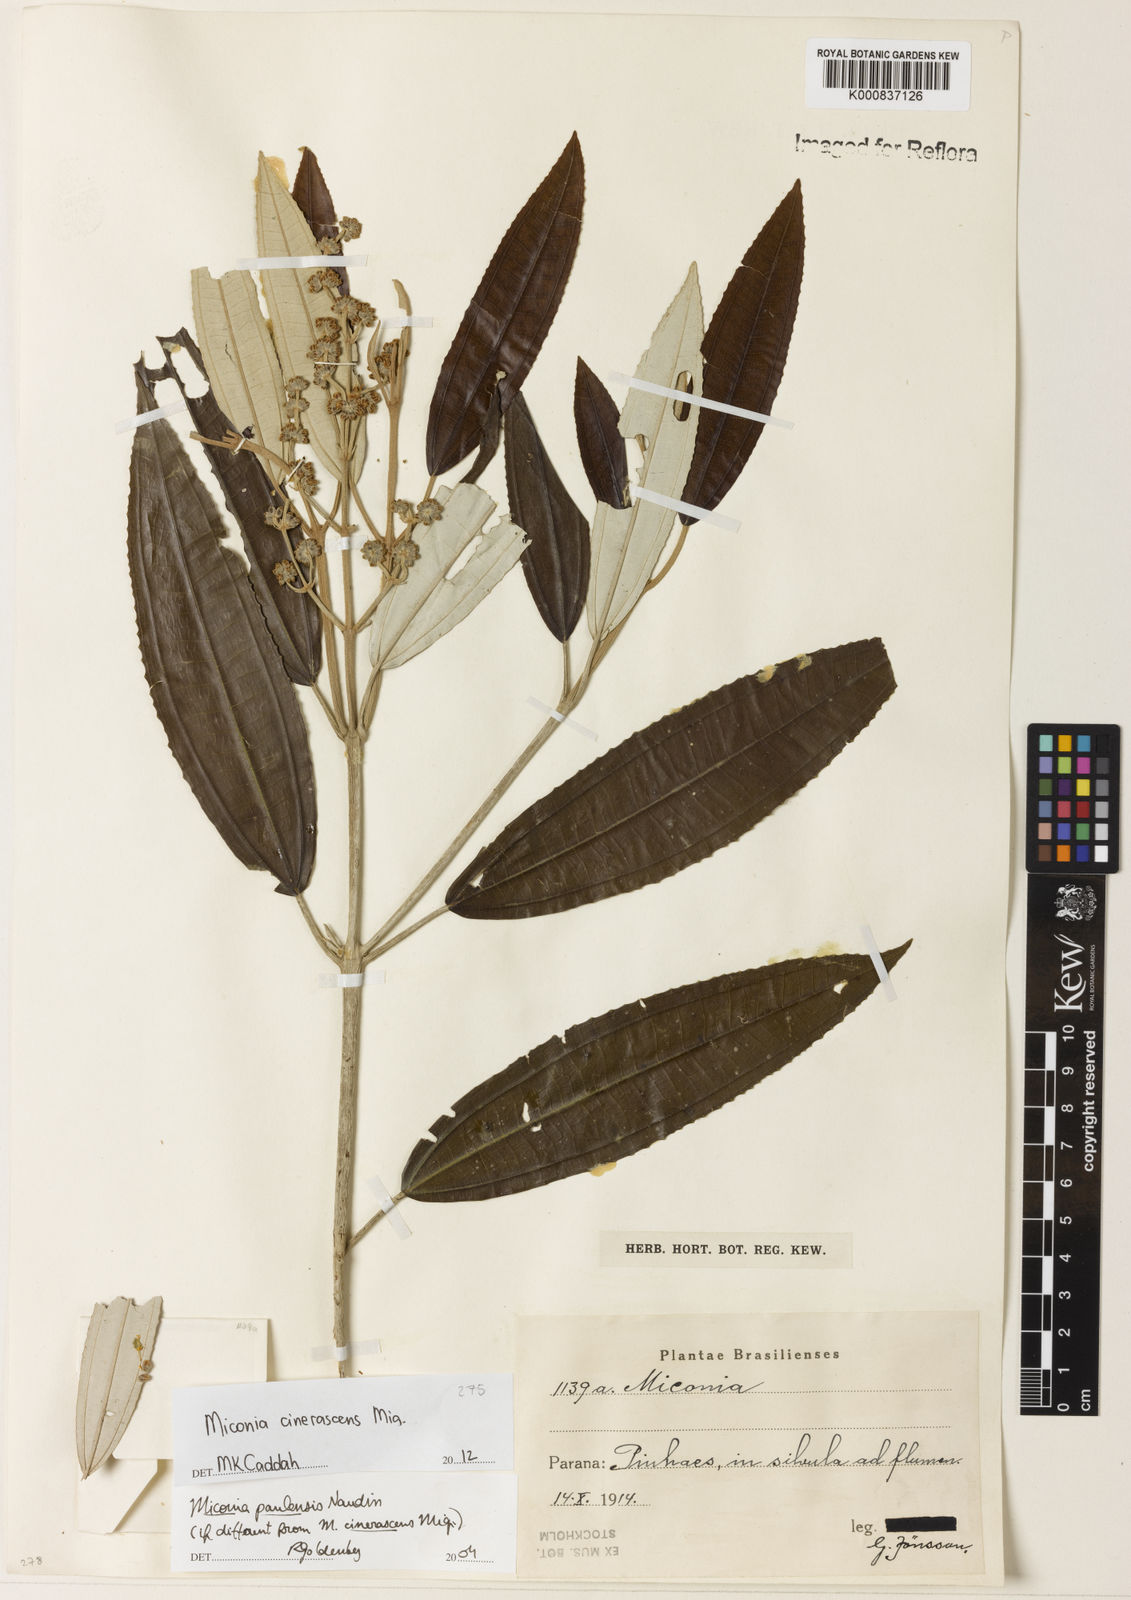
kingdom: Plantae
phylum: Tracheophyta
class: Magnoliopsida
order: Myrtales
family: Melastomataceae
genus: Miconia
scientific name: Miconia cinerascens
